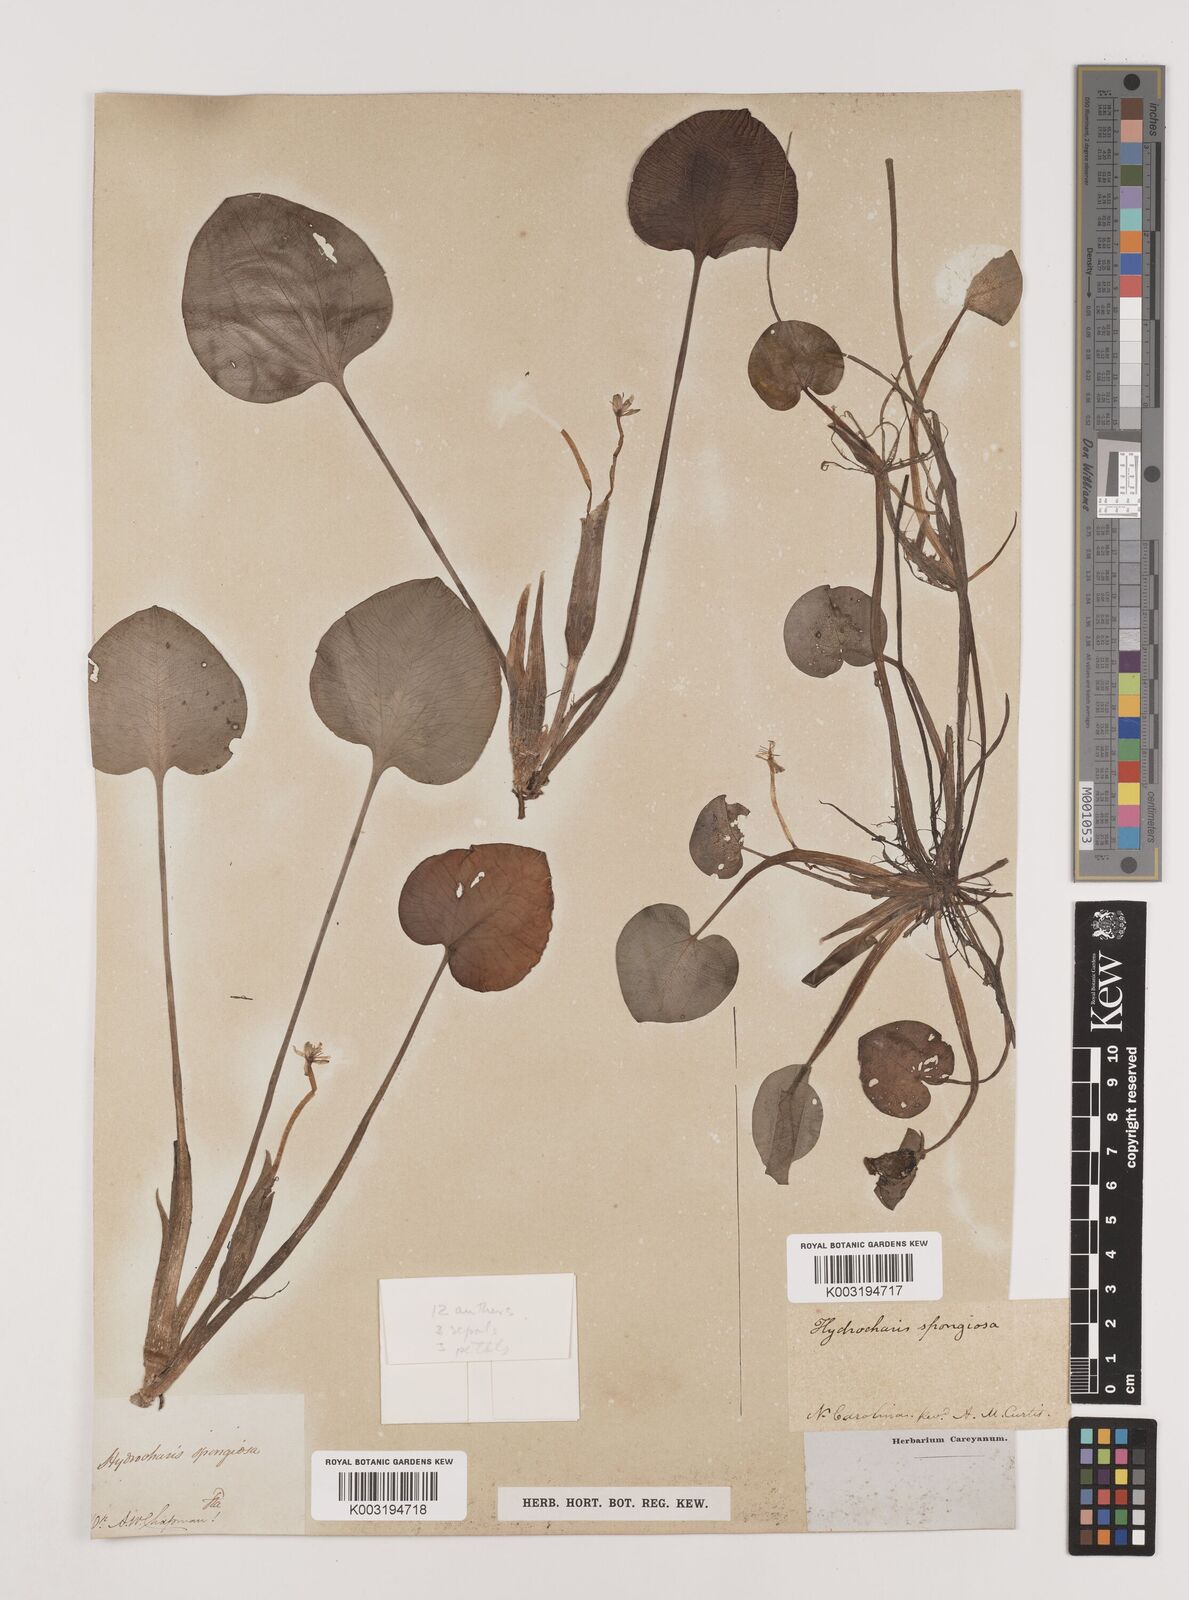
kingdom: Plantae
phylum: Tracheophyta
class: Liliopsida
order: Alismatales
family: Hydrocharitaceae
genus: Hydrocharis
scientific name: Hydrocharis spongia
